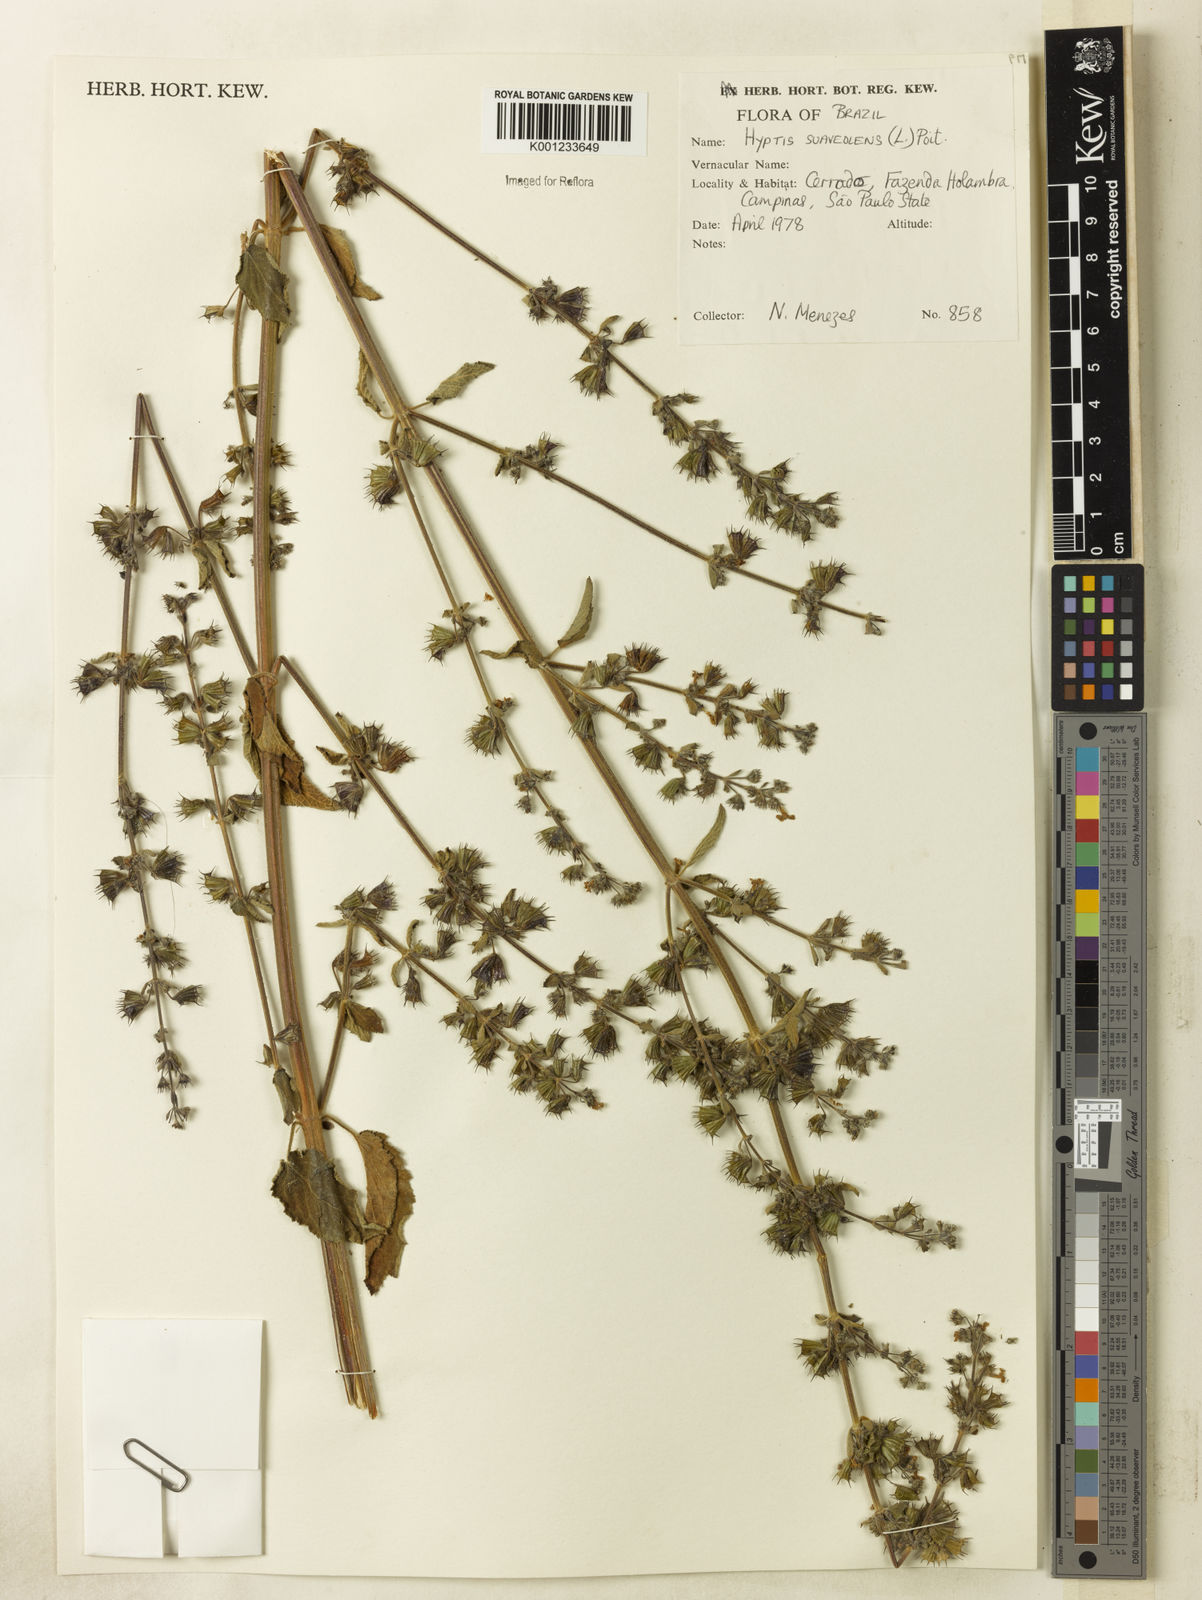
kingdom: Plantae
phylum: Tracheophyta
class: Magnoliopsida
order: Lamiales
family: Lamiaceae
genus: Mesosphaerum
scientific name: Mesosphaerum suaveolens
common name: Pignut
